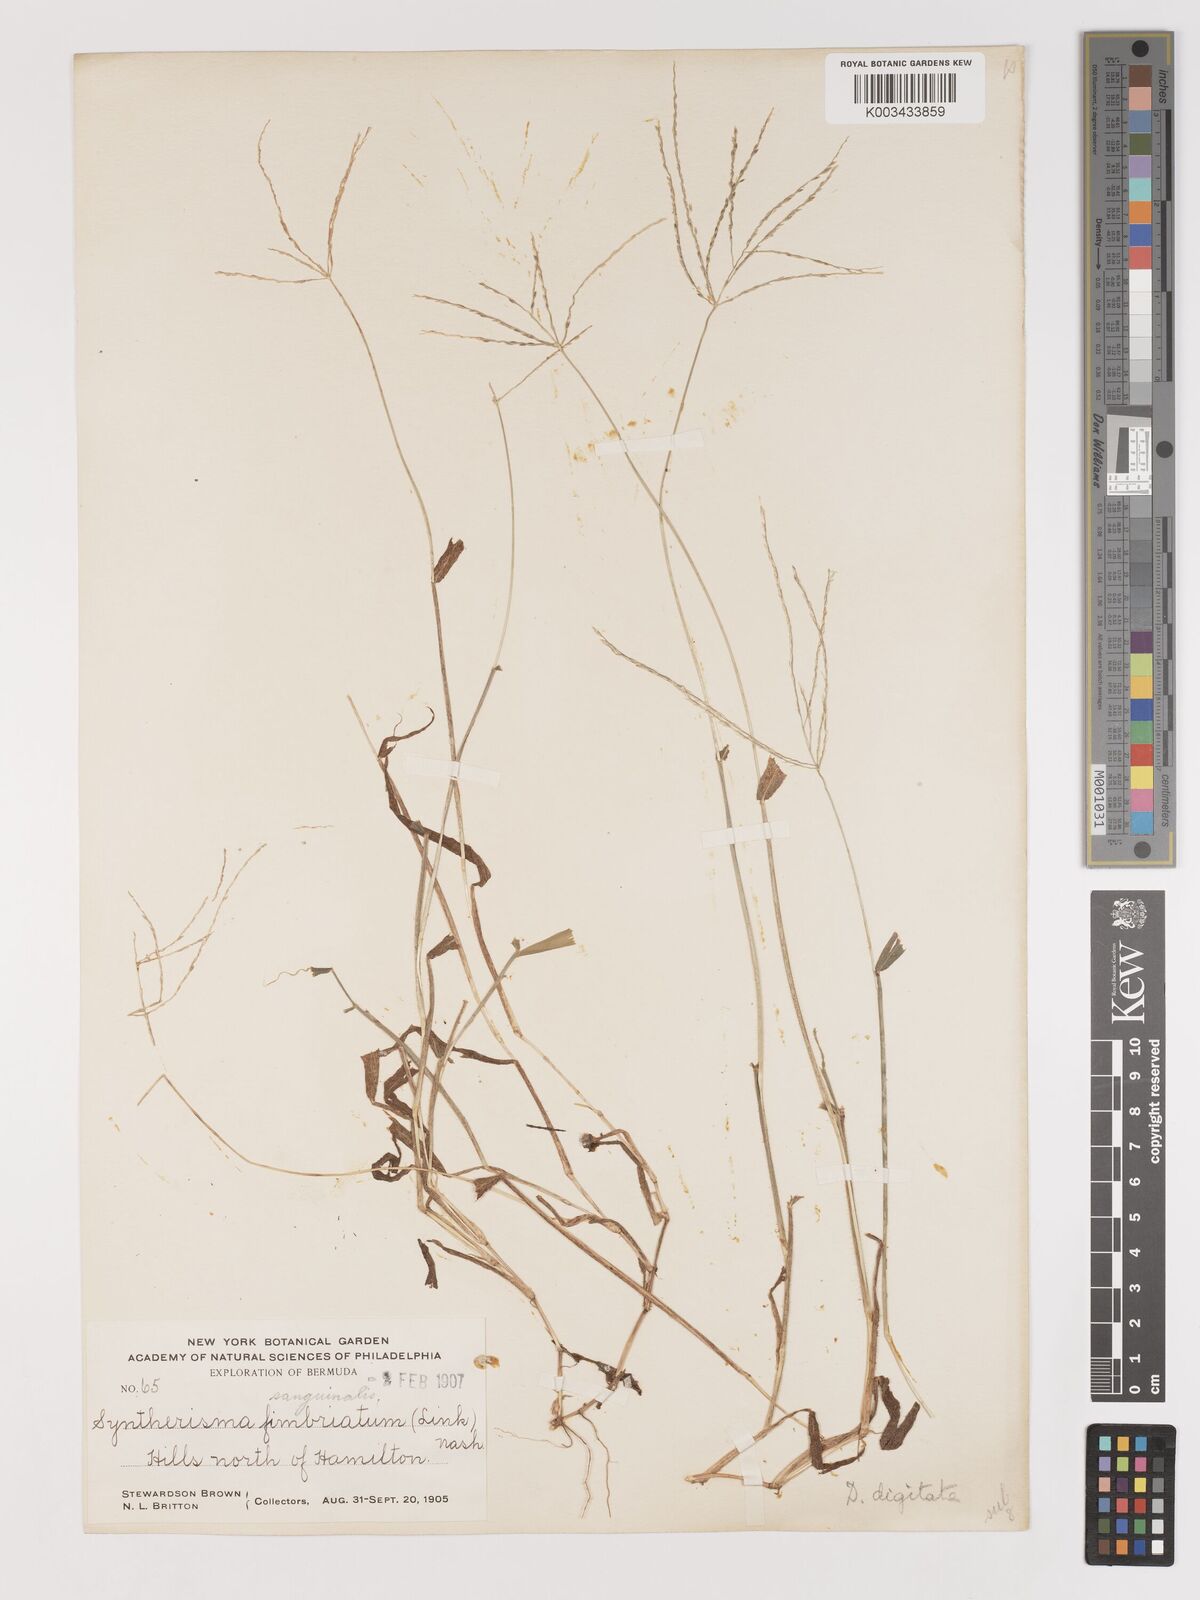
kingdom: Plantae
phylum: Tracheophyta
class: Liliopsida
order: Poales
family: Poaceae
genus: Digitaria
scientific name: Digitaria horizontalis
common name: Jamaican crabgrass
